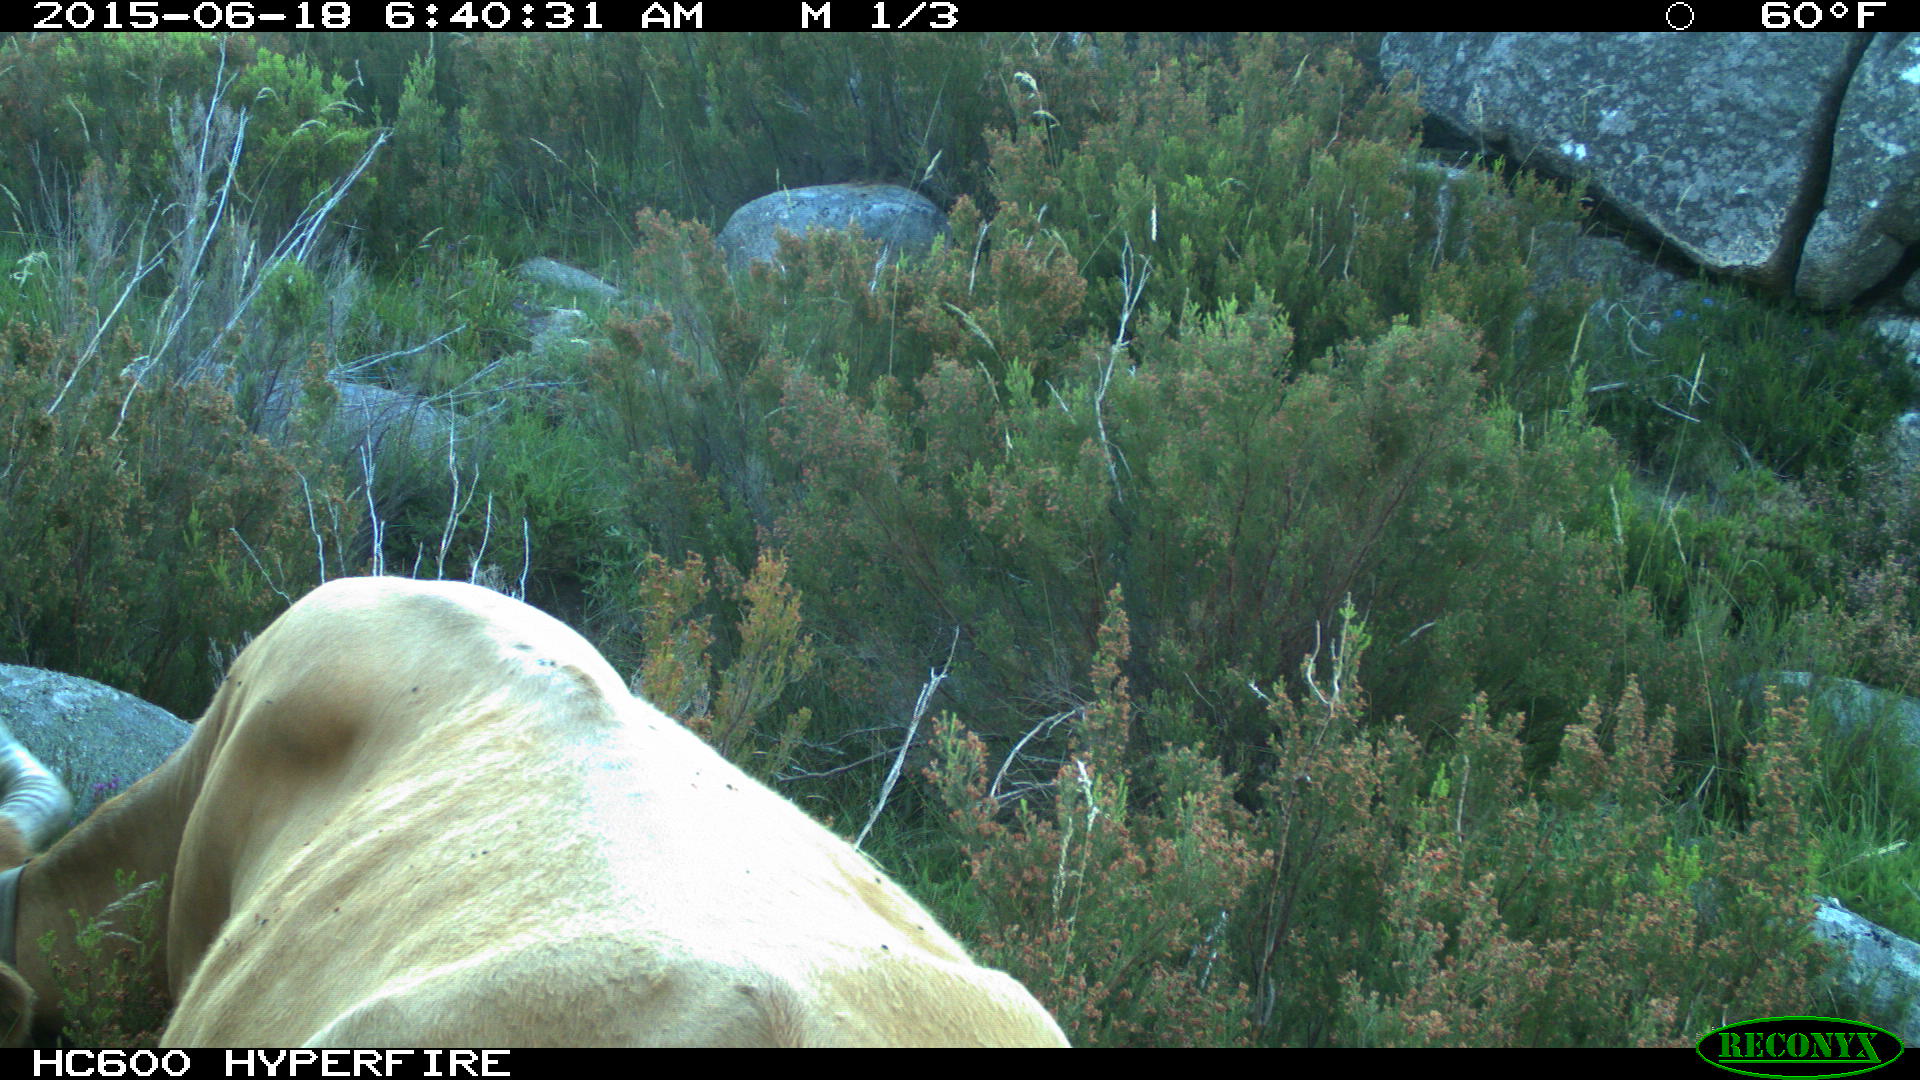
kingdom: Animalia
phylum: Chordata
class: Mammalia
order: Artiodactyla
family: Bovidae
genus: Bos
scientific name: Bos taurus
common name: Domesticated cattle
